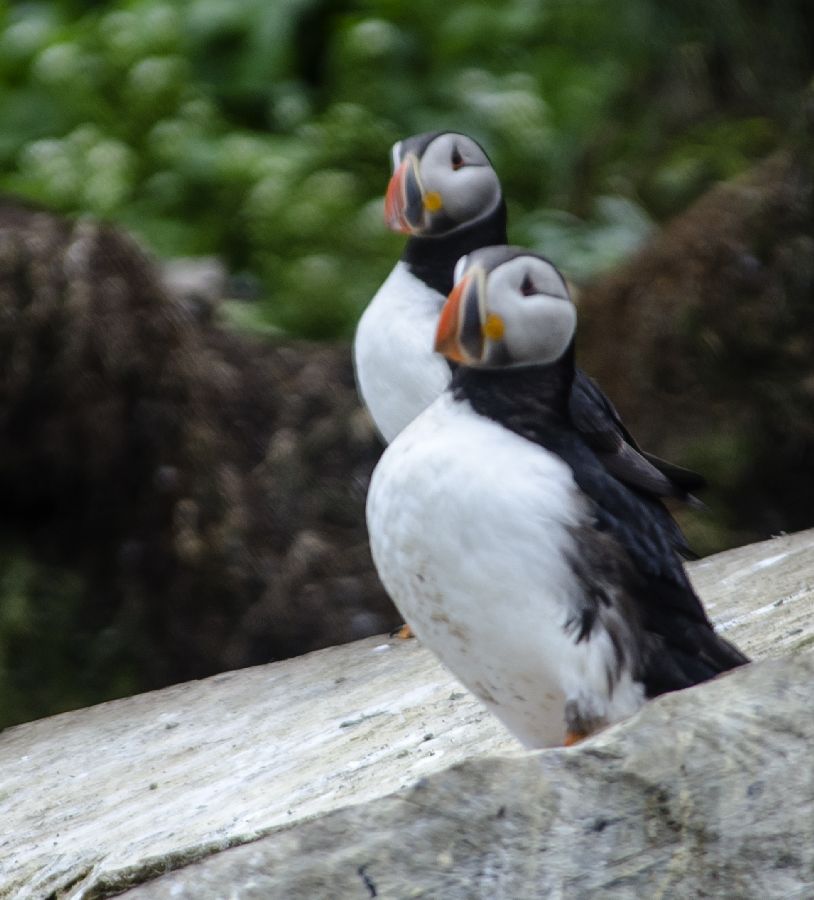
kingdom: Animalia
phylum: Chordata
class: Aves
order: Charadriiformes
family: Alcidae
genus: Fratercula
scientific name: Fratercula arctica
